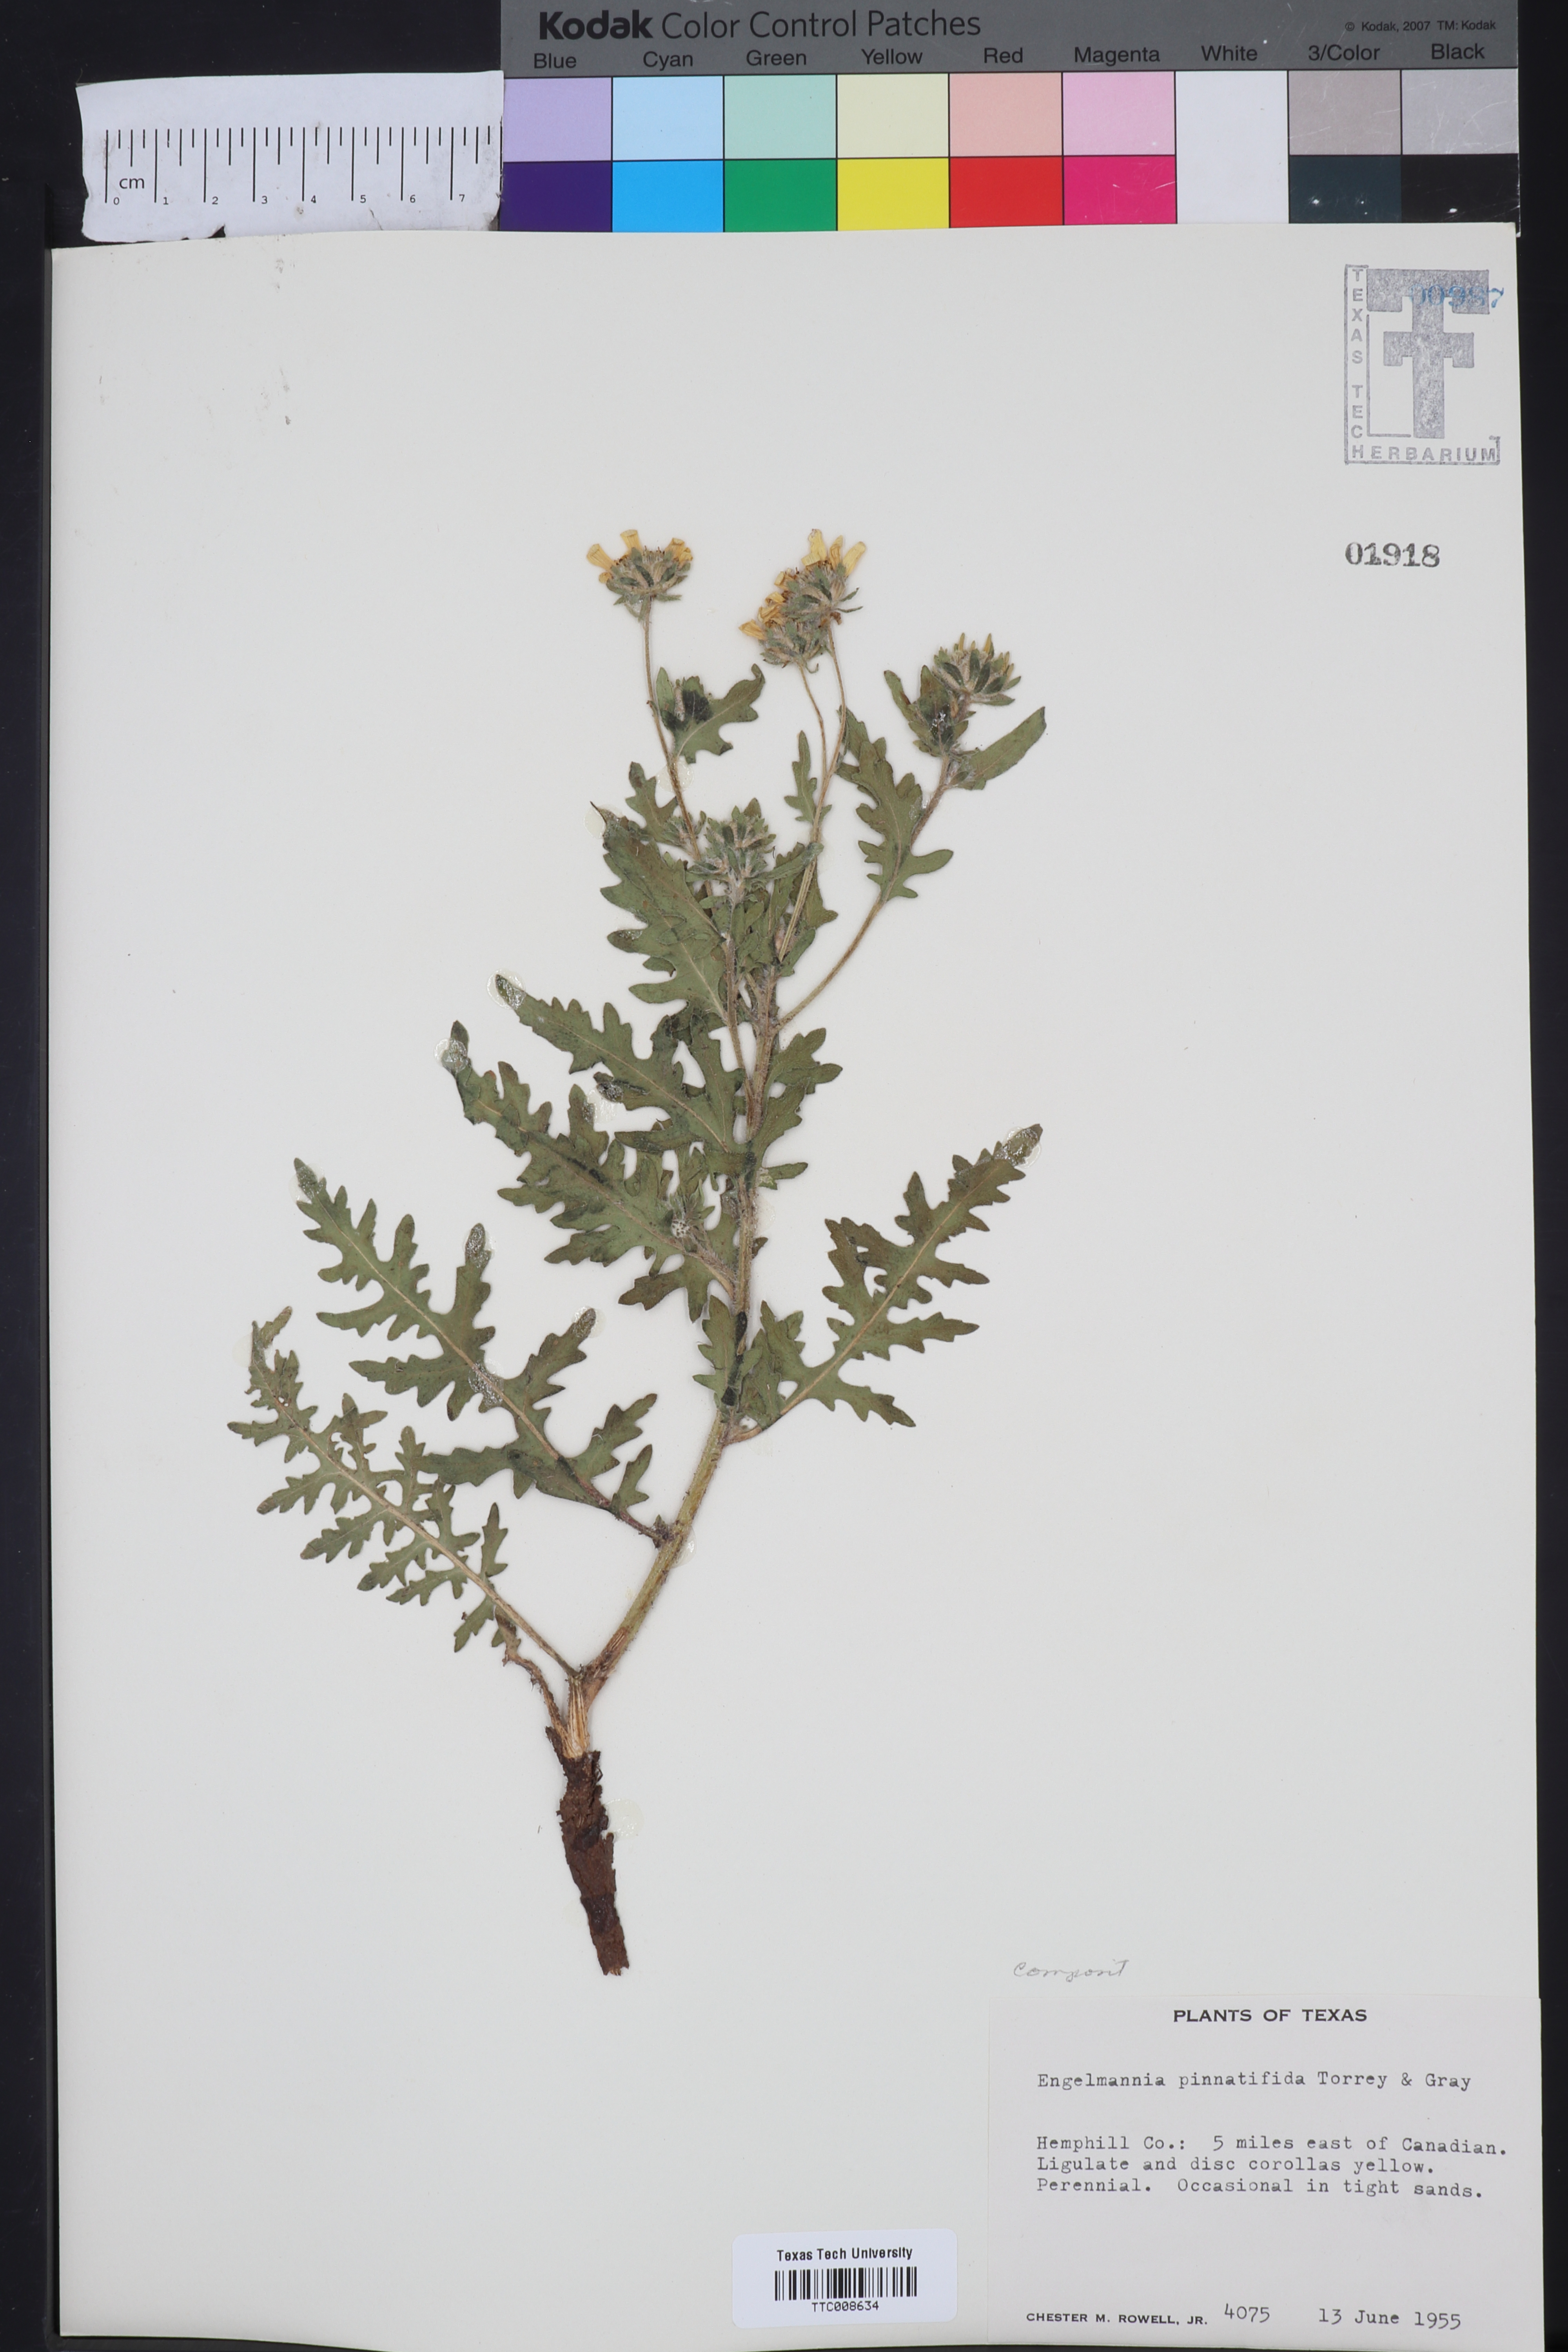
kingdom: Plantae
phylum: Tracheophyta
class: Magnoliopsida
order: Asterales
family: Asteraceae
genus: Engelmannia
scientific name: Engelmannia peristenia
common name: Engelmann's daisy
